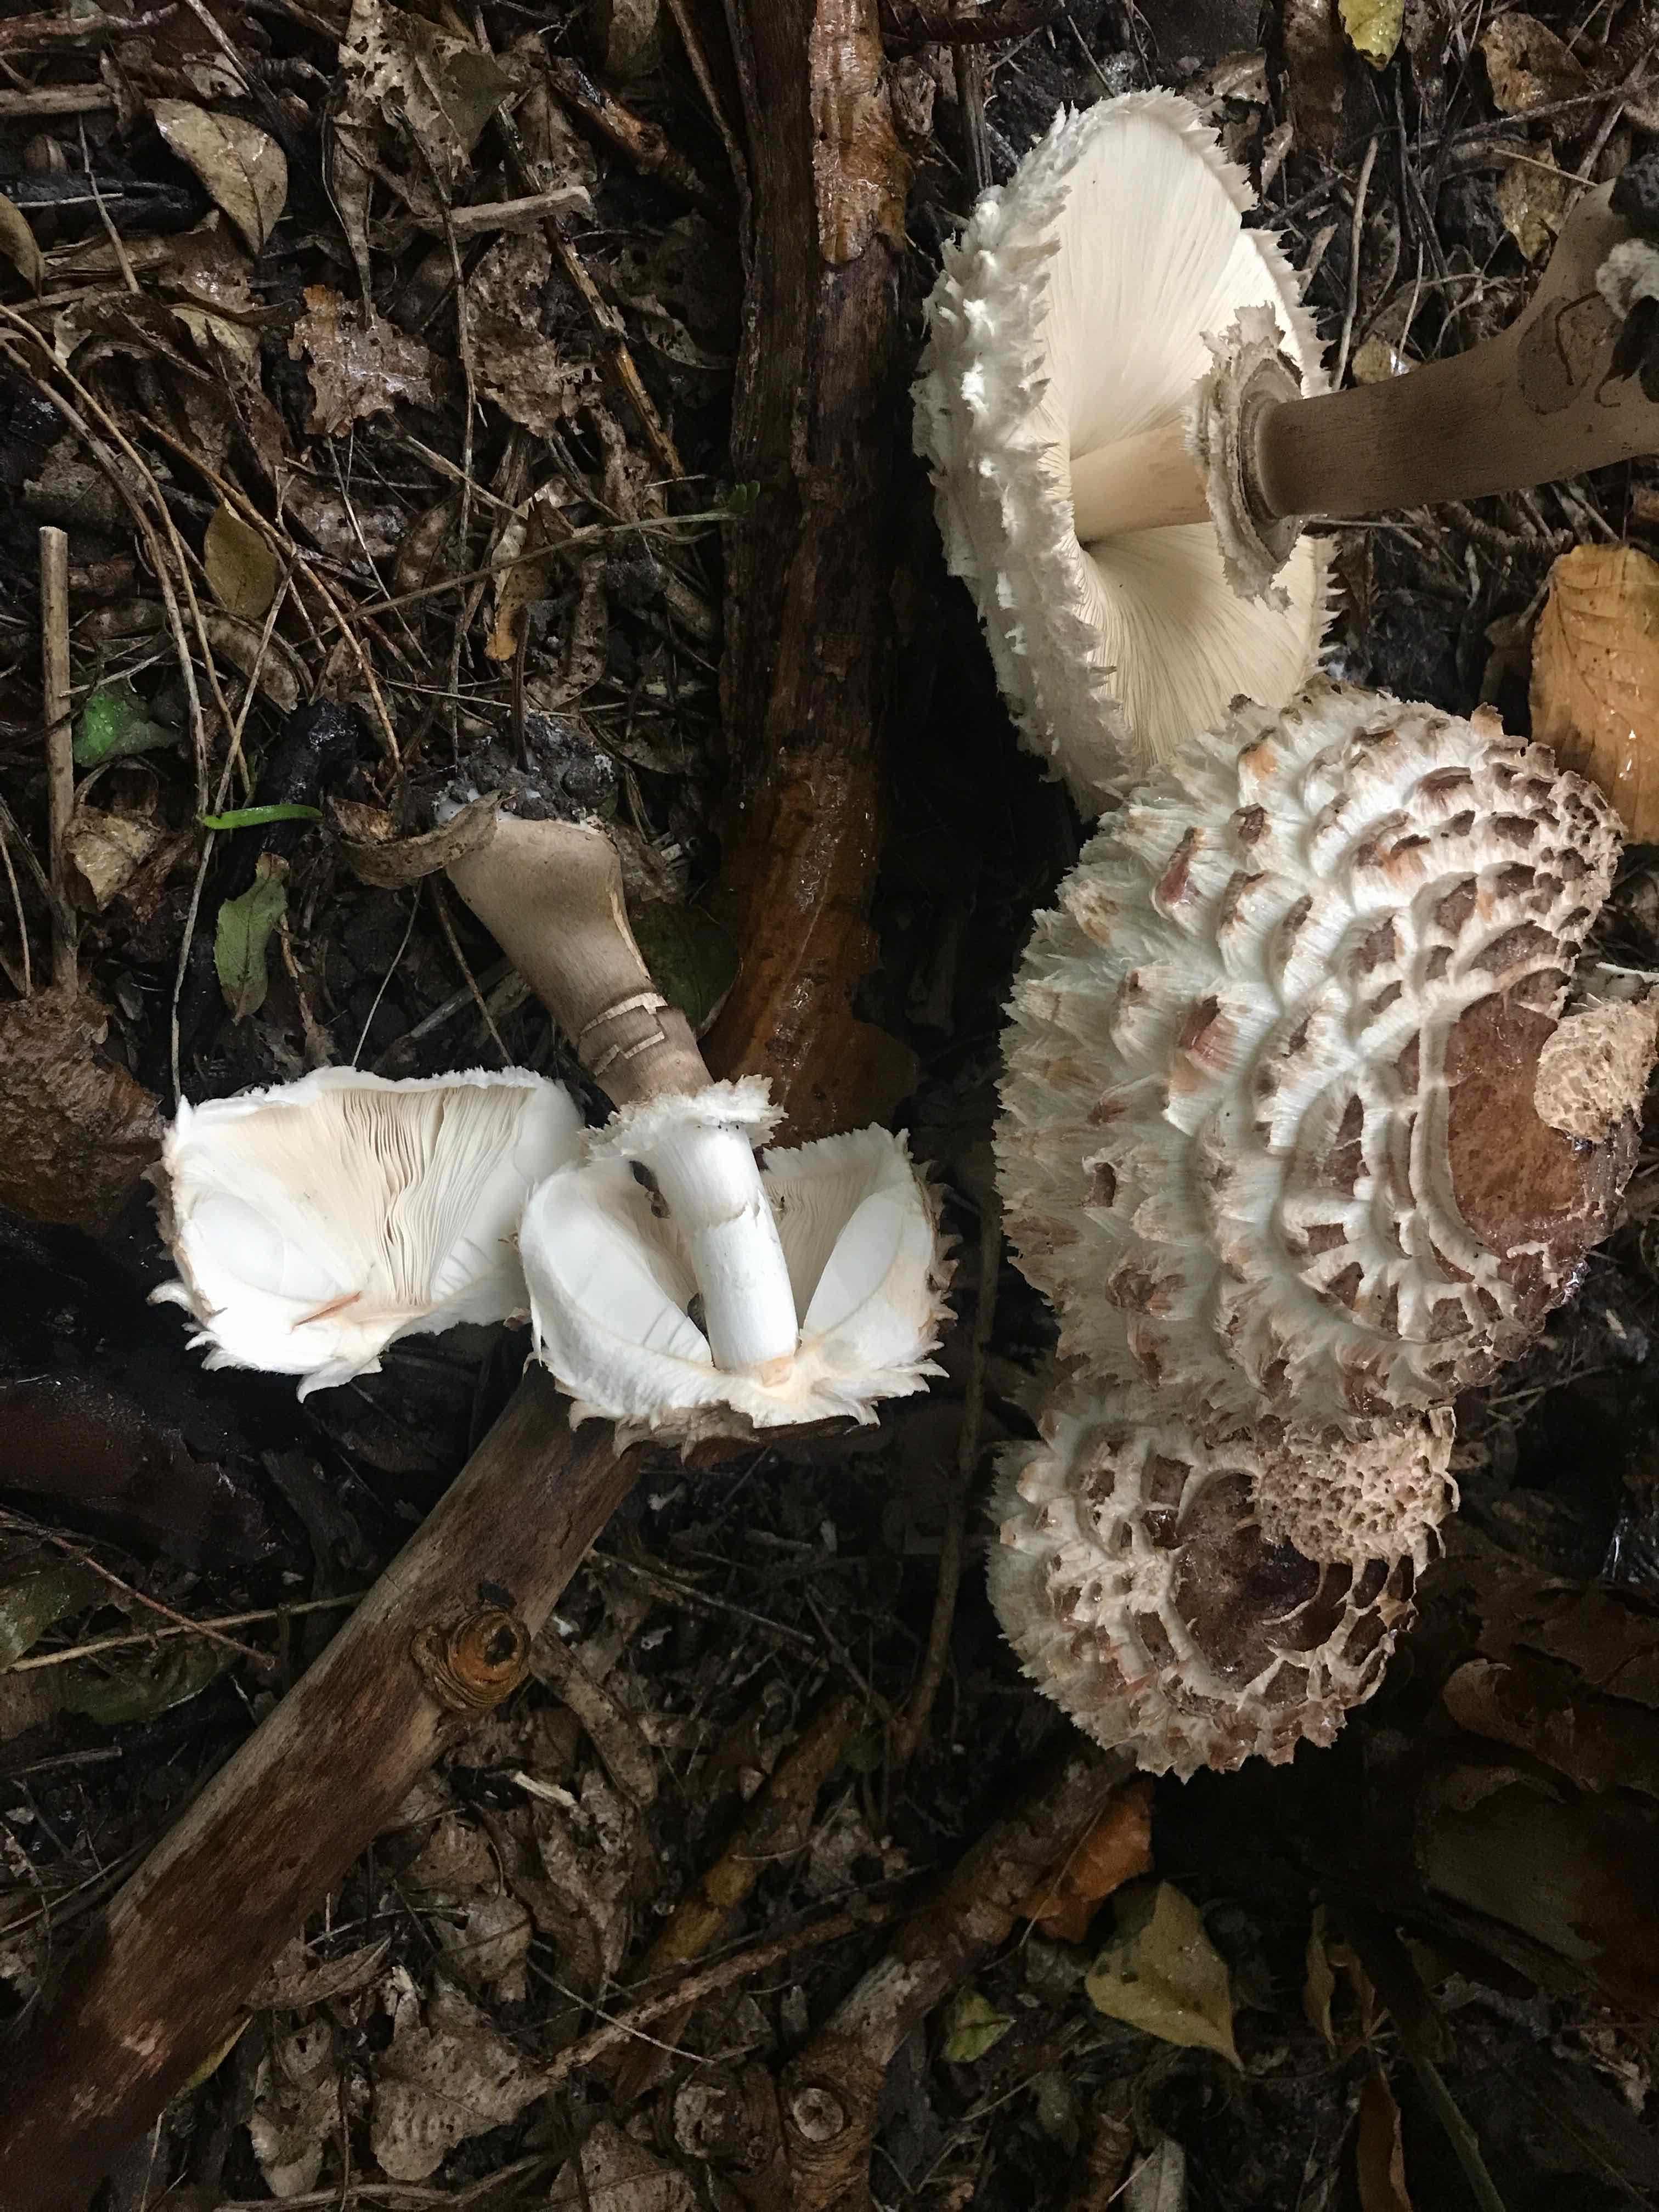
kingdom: Fungi
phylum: Basidiomycota
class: Agaricomycetes
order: Agaricales
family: Agaricaceae
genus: Chlorophyllum
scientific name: Chlorophyllum rhacodes
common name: ægte rabarberhat
